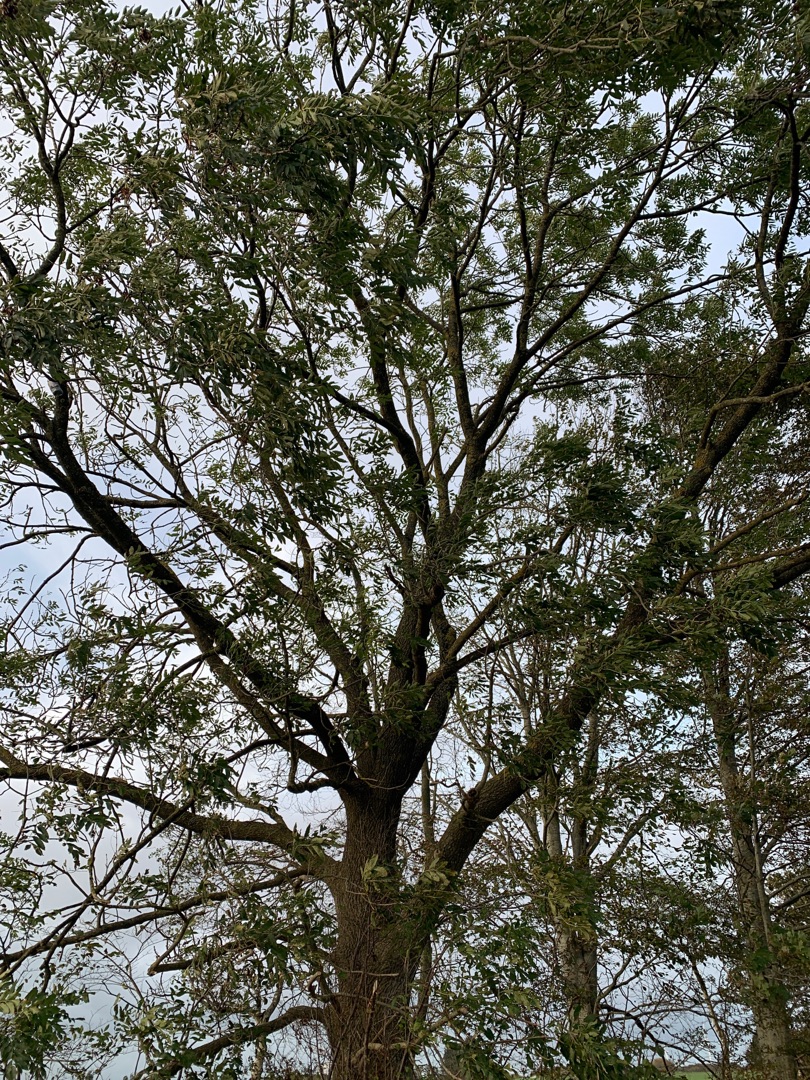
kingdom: Plantae
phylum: Tracheophyta
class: Magnoliopsida
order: Lamiales
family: Oleaceae
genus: Fraxinus
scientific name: Fraxinus excelsior
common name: Ask
